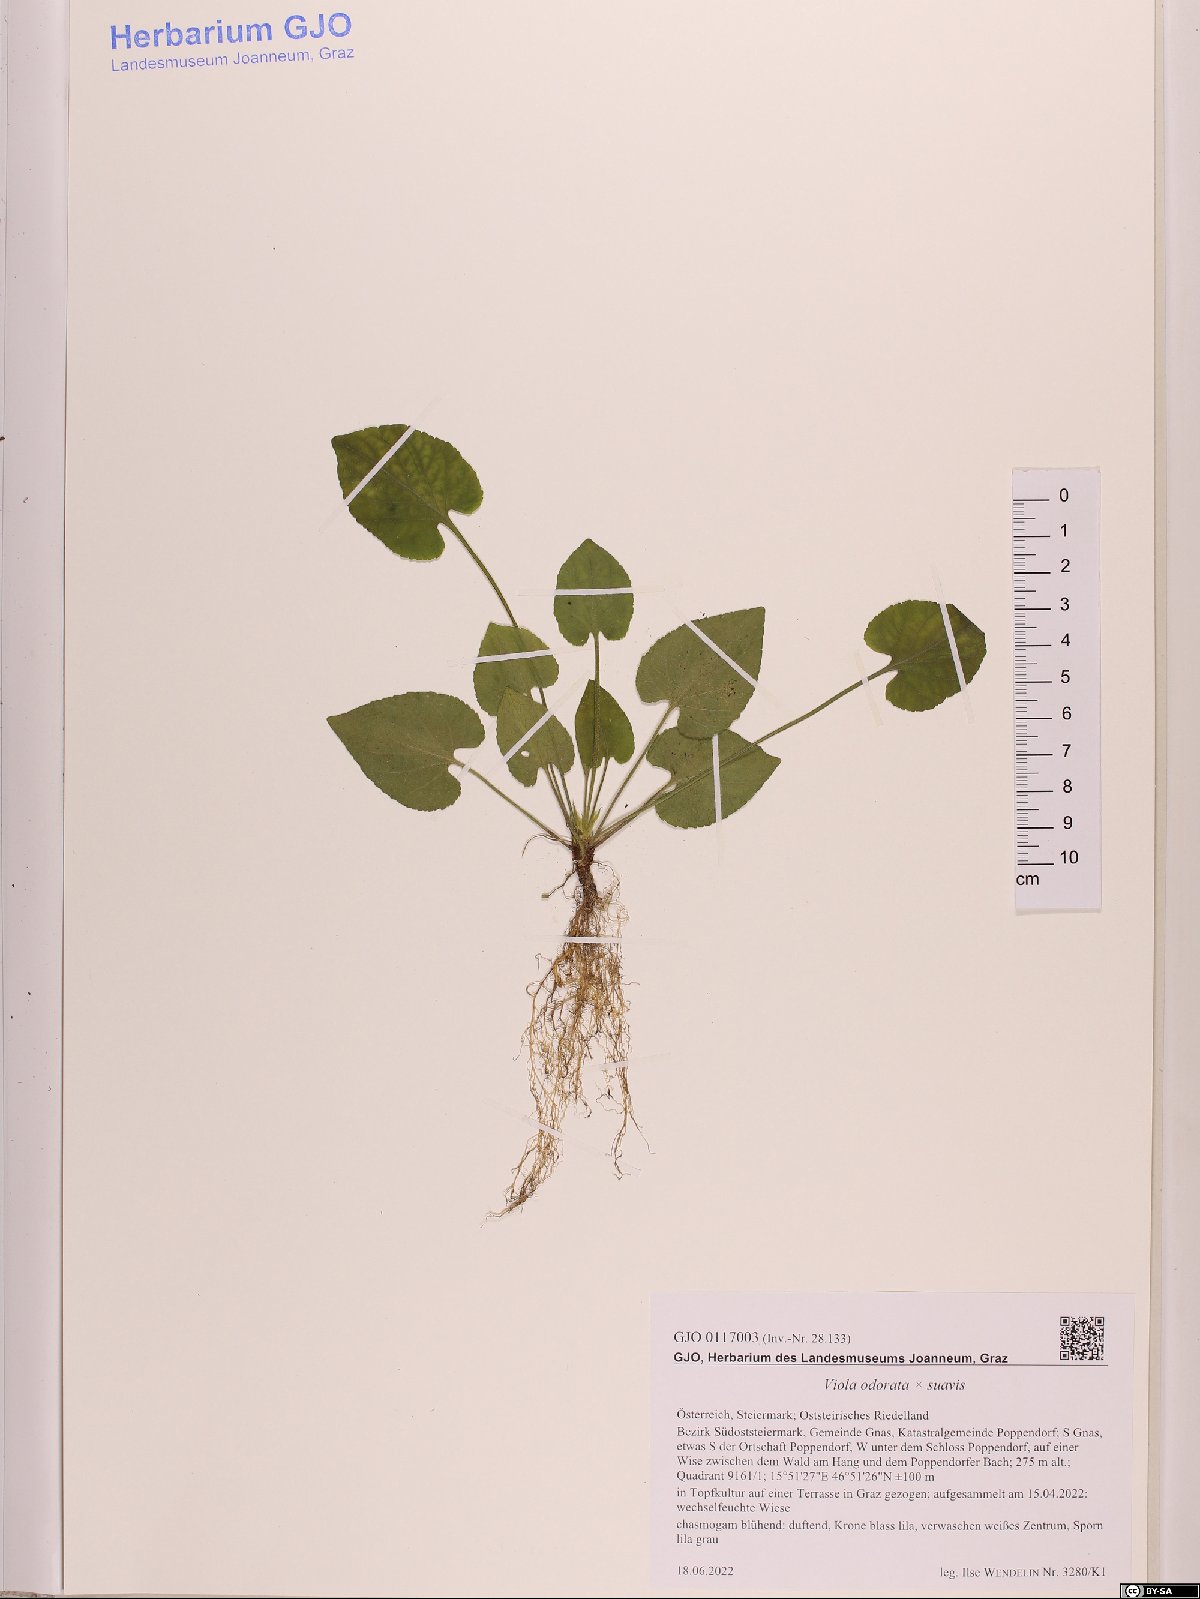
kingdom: Plantae
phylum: Tracheophyta
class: Magnoliopsida
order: Malpighiales
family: Violaceae
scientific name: Violaceae
